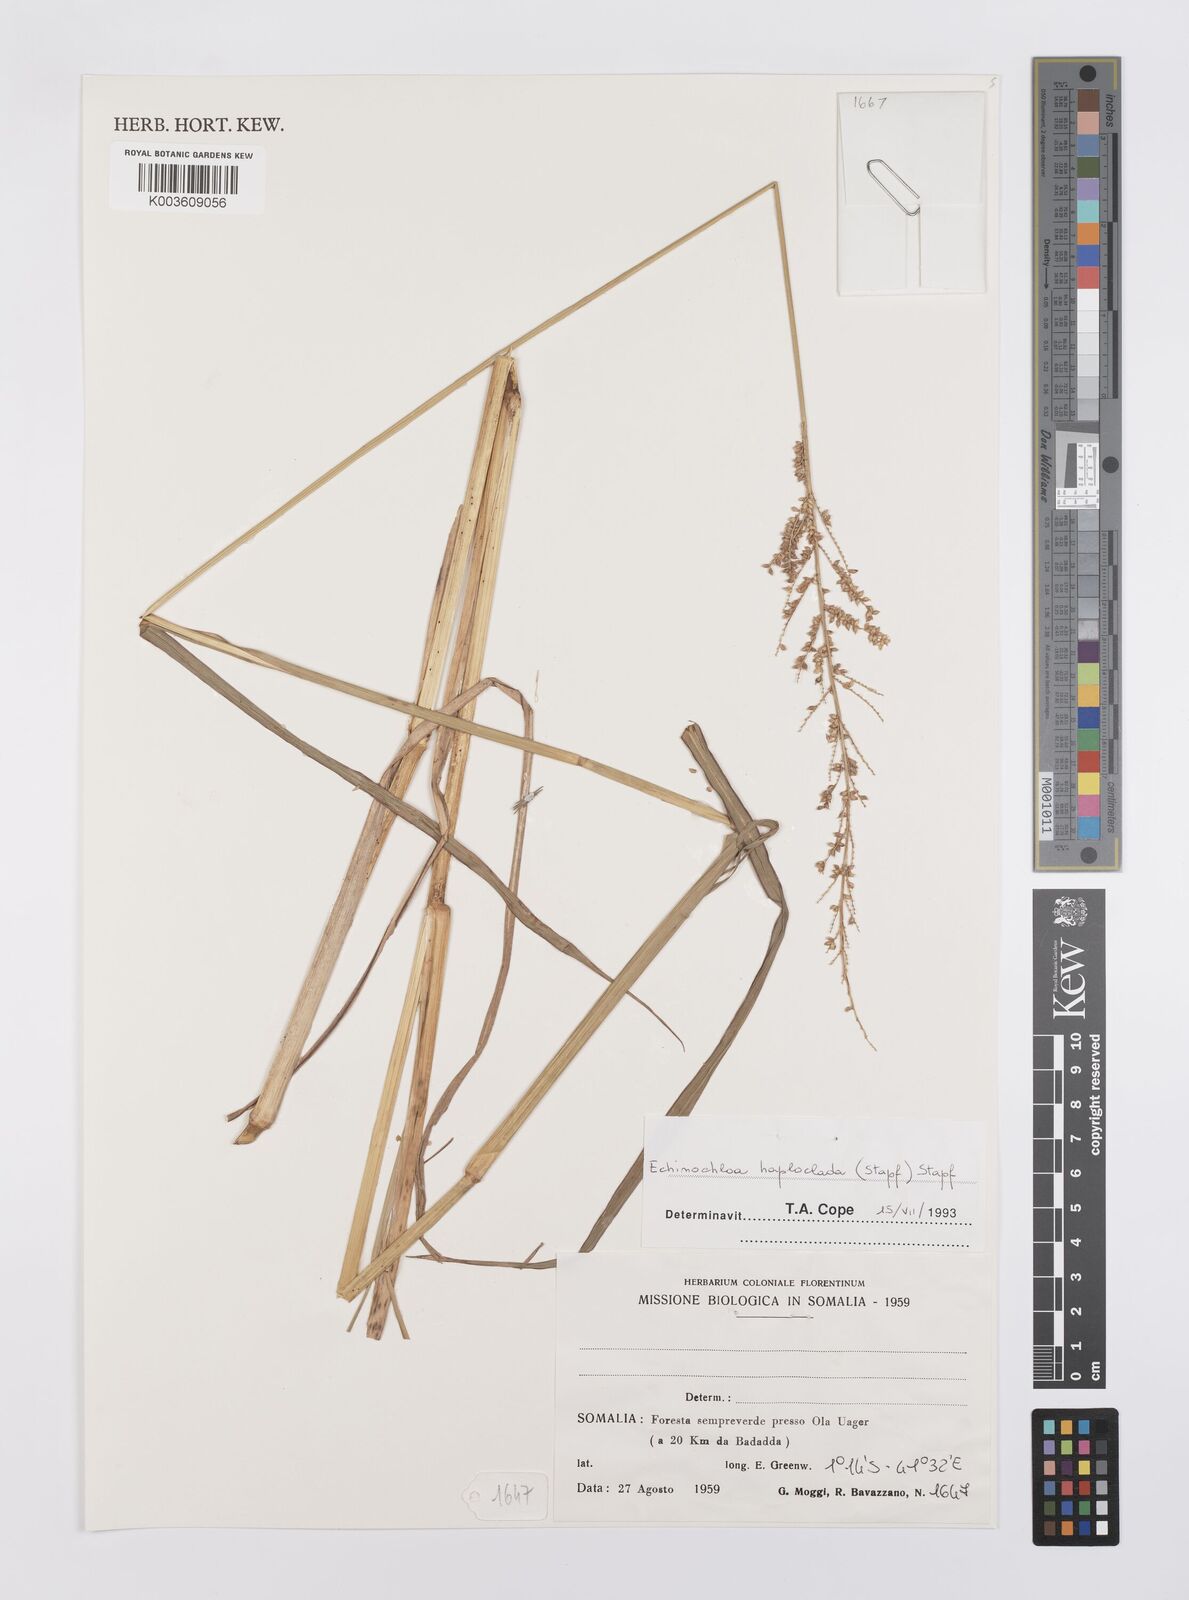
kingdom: Plantae
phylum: Tracheophyta
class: Liliopsida
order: Poales
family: Poaceae
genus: Echinochloa
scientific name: Echinochloa haploclada
